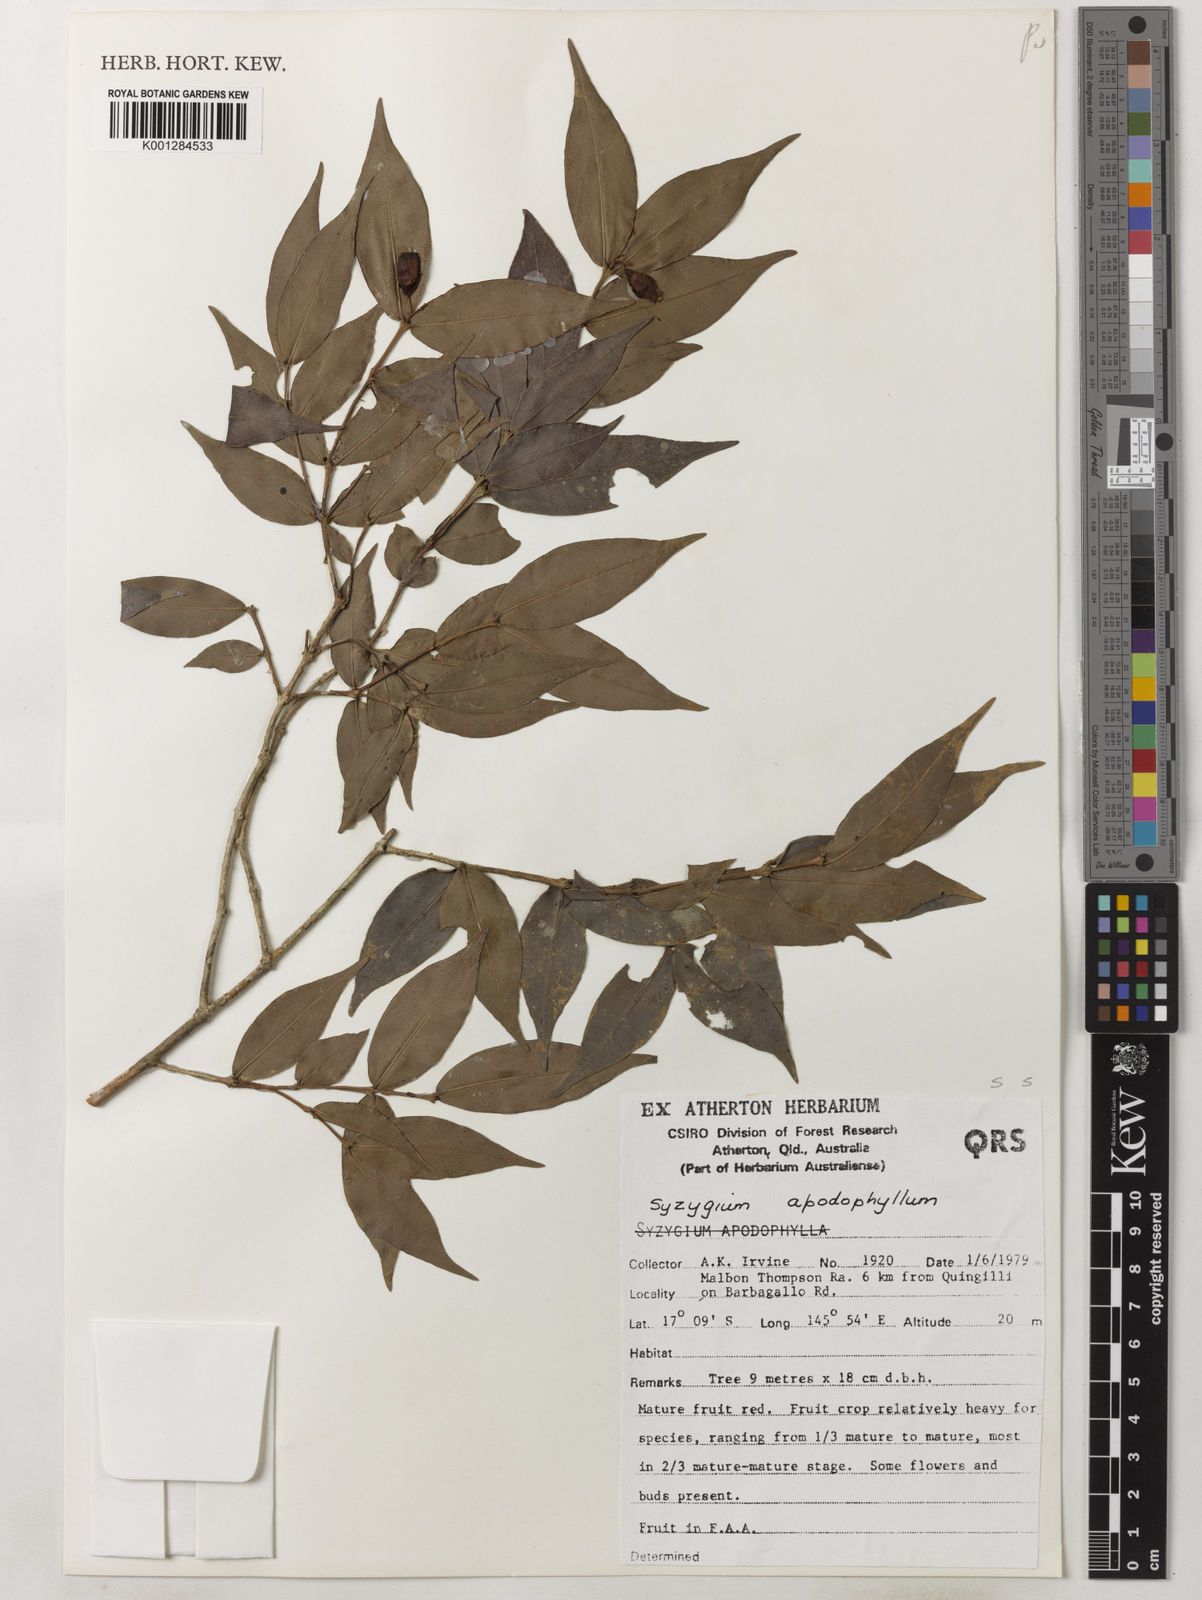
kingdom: Plantae
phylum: Tracheophyta
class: Magnoliopsida
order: Myrtales
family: Myrtaceae
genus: Syzygium
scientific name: Syzygium apodophyllum
